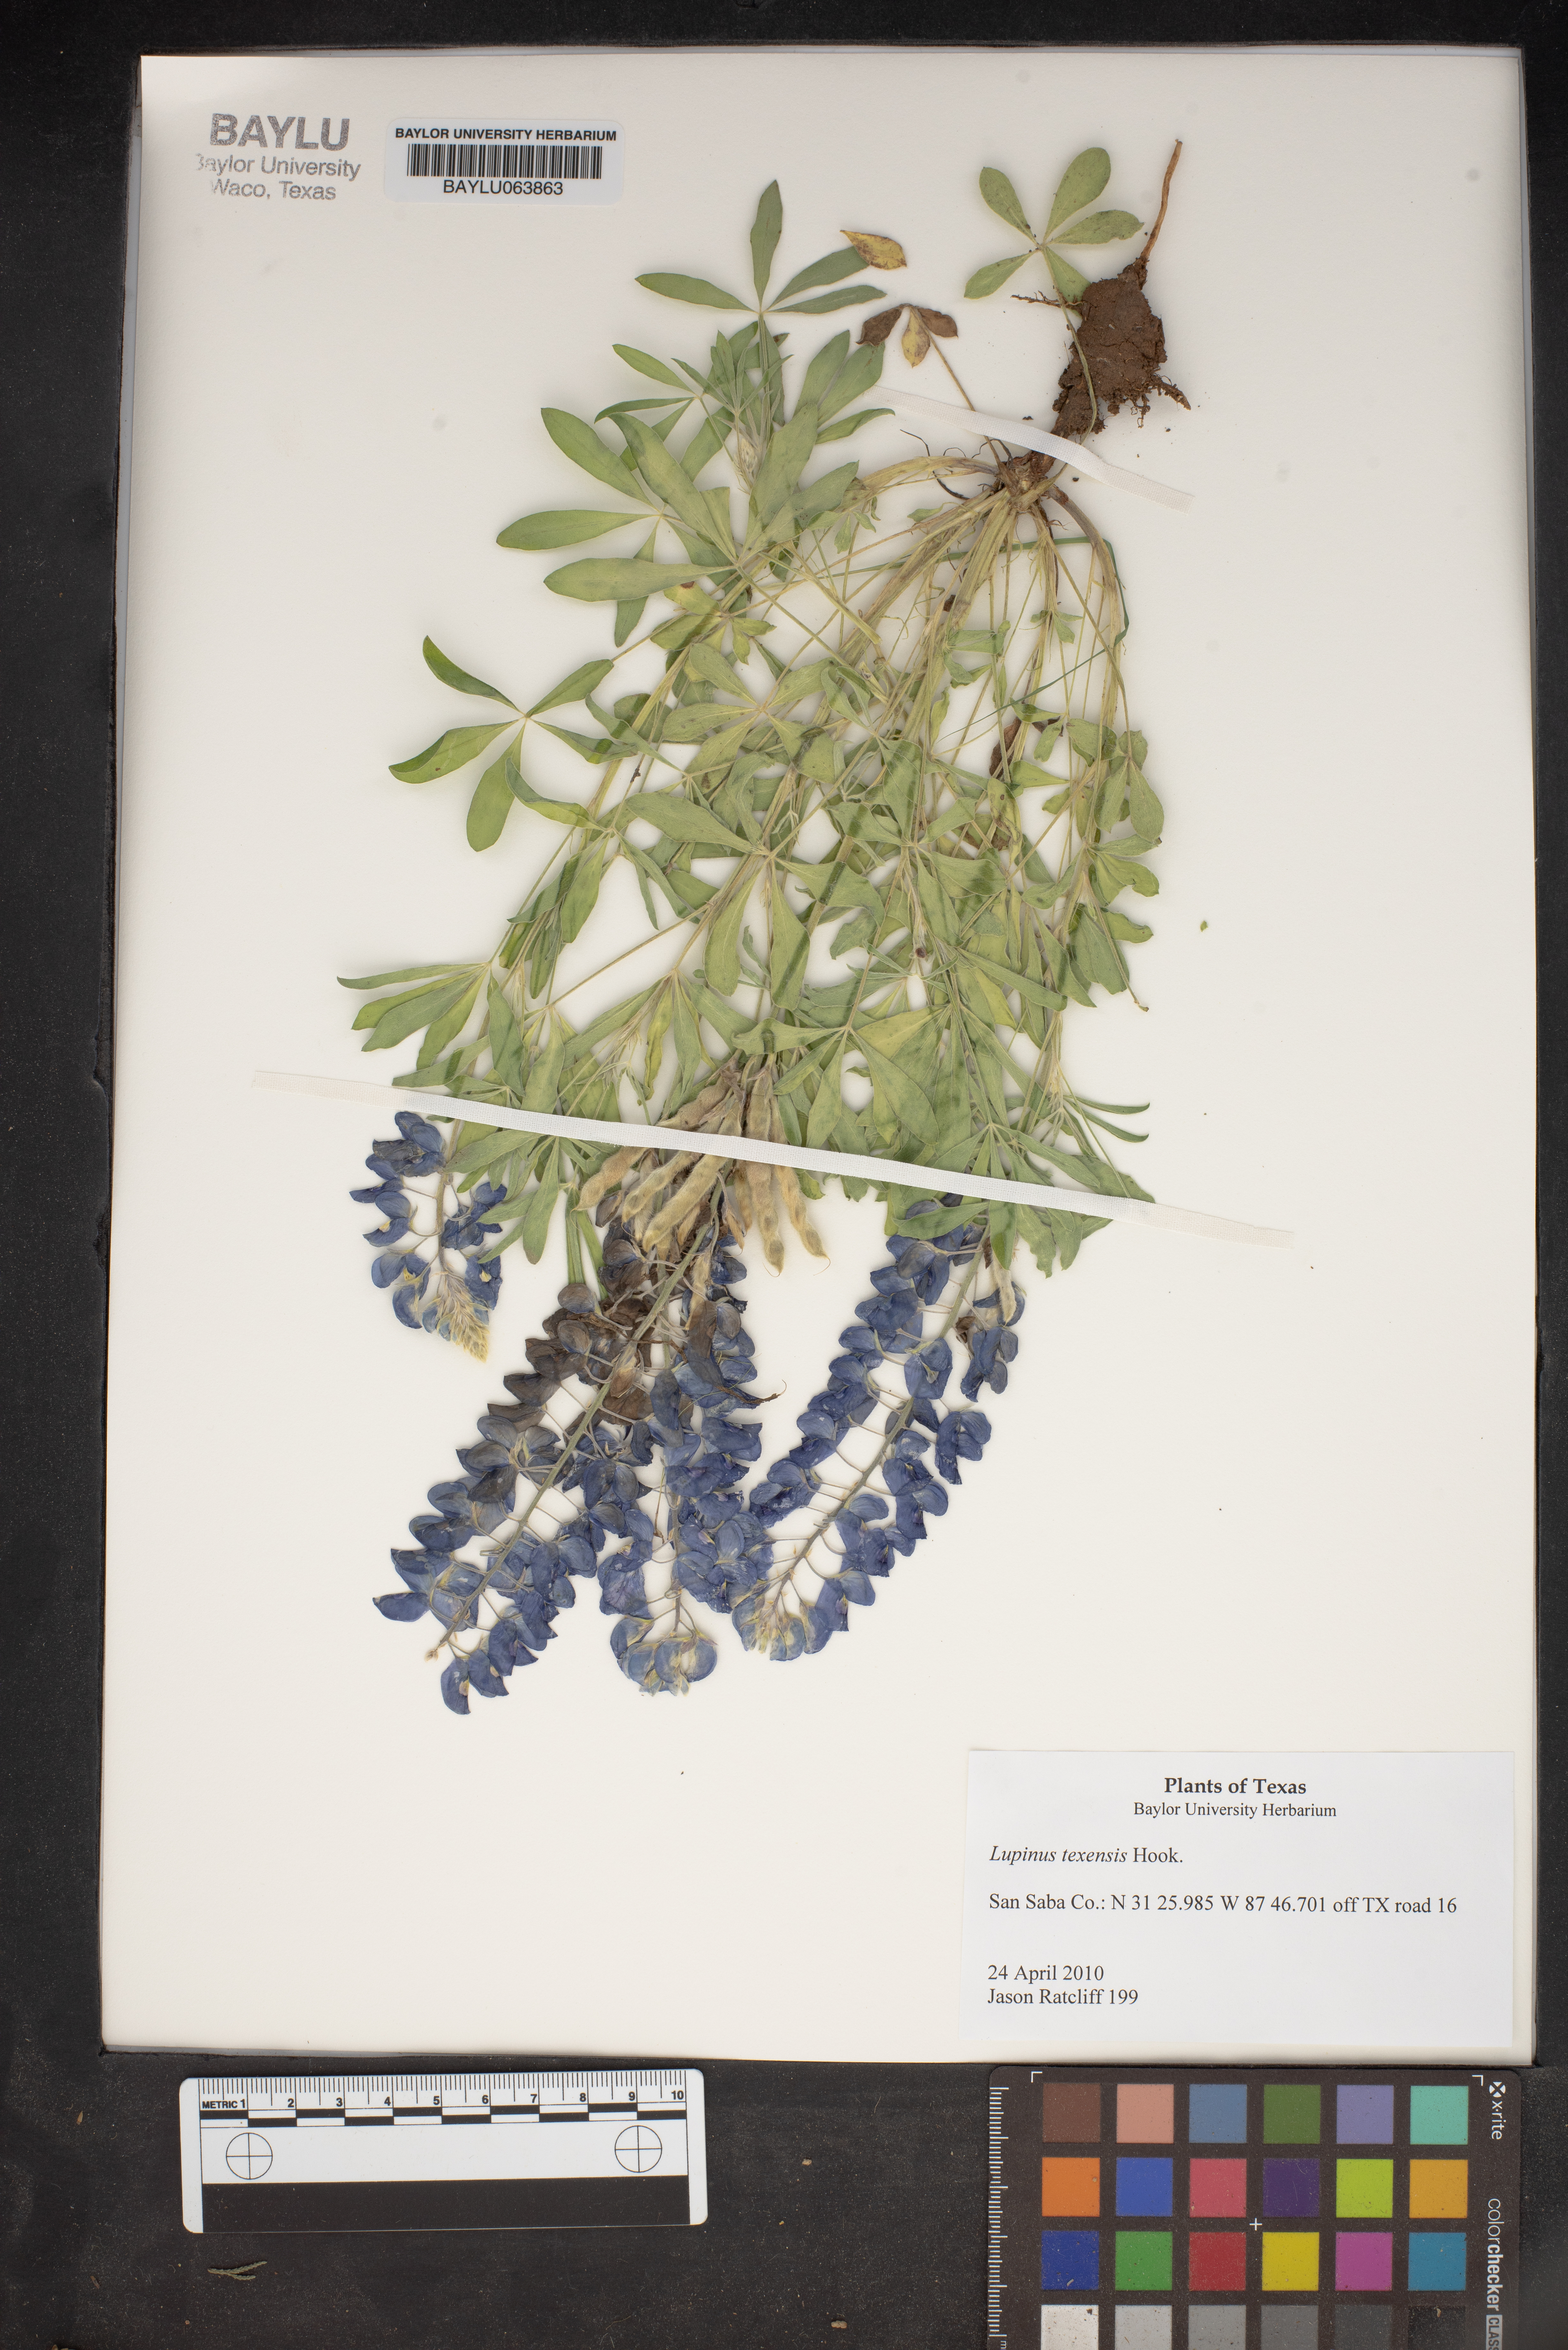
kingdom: Plantae
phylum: Tracheophyta
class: Magnoliopsida
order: Fabales
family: Fabaceae
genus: Lupinus
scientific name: Lupinus texensis
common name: Texas bluebonnet
